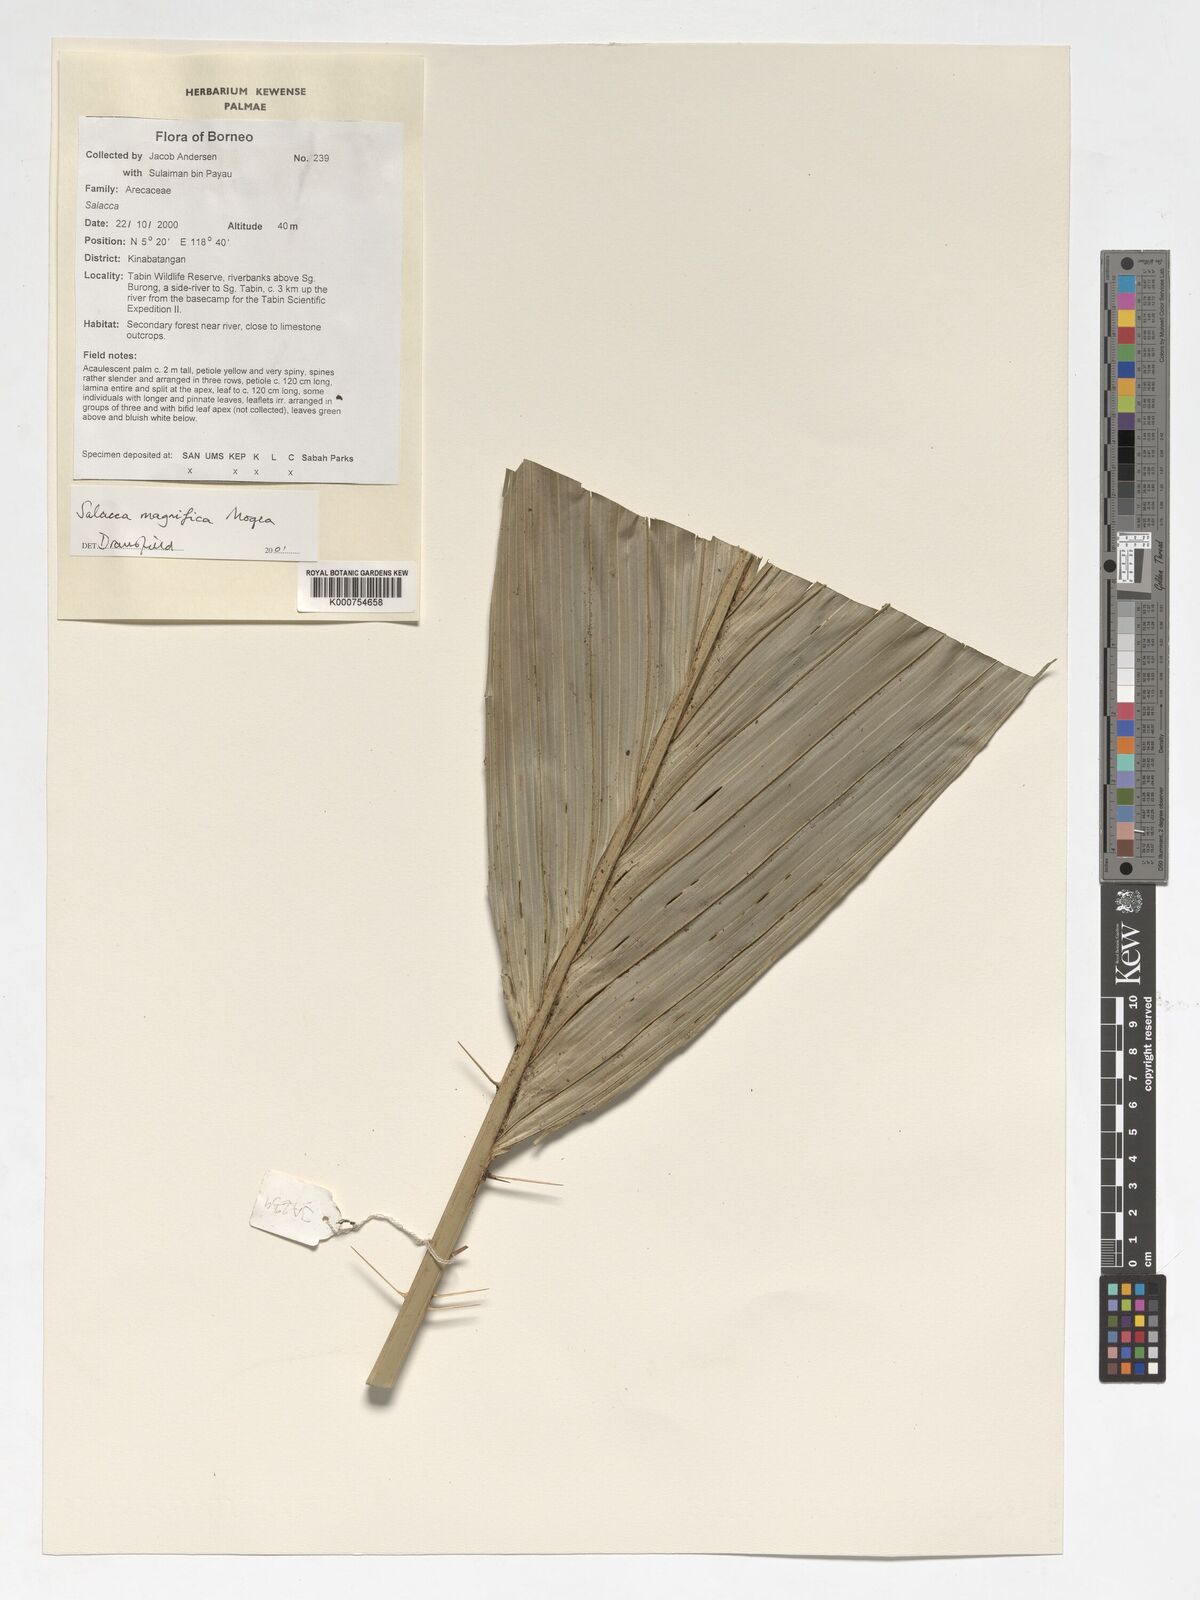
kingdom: Plantae
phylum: Tracheophyta
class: Liliopsida
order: Arecales
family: Arecaceae
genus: Salacca
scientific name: Salacca magnifica
